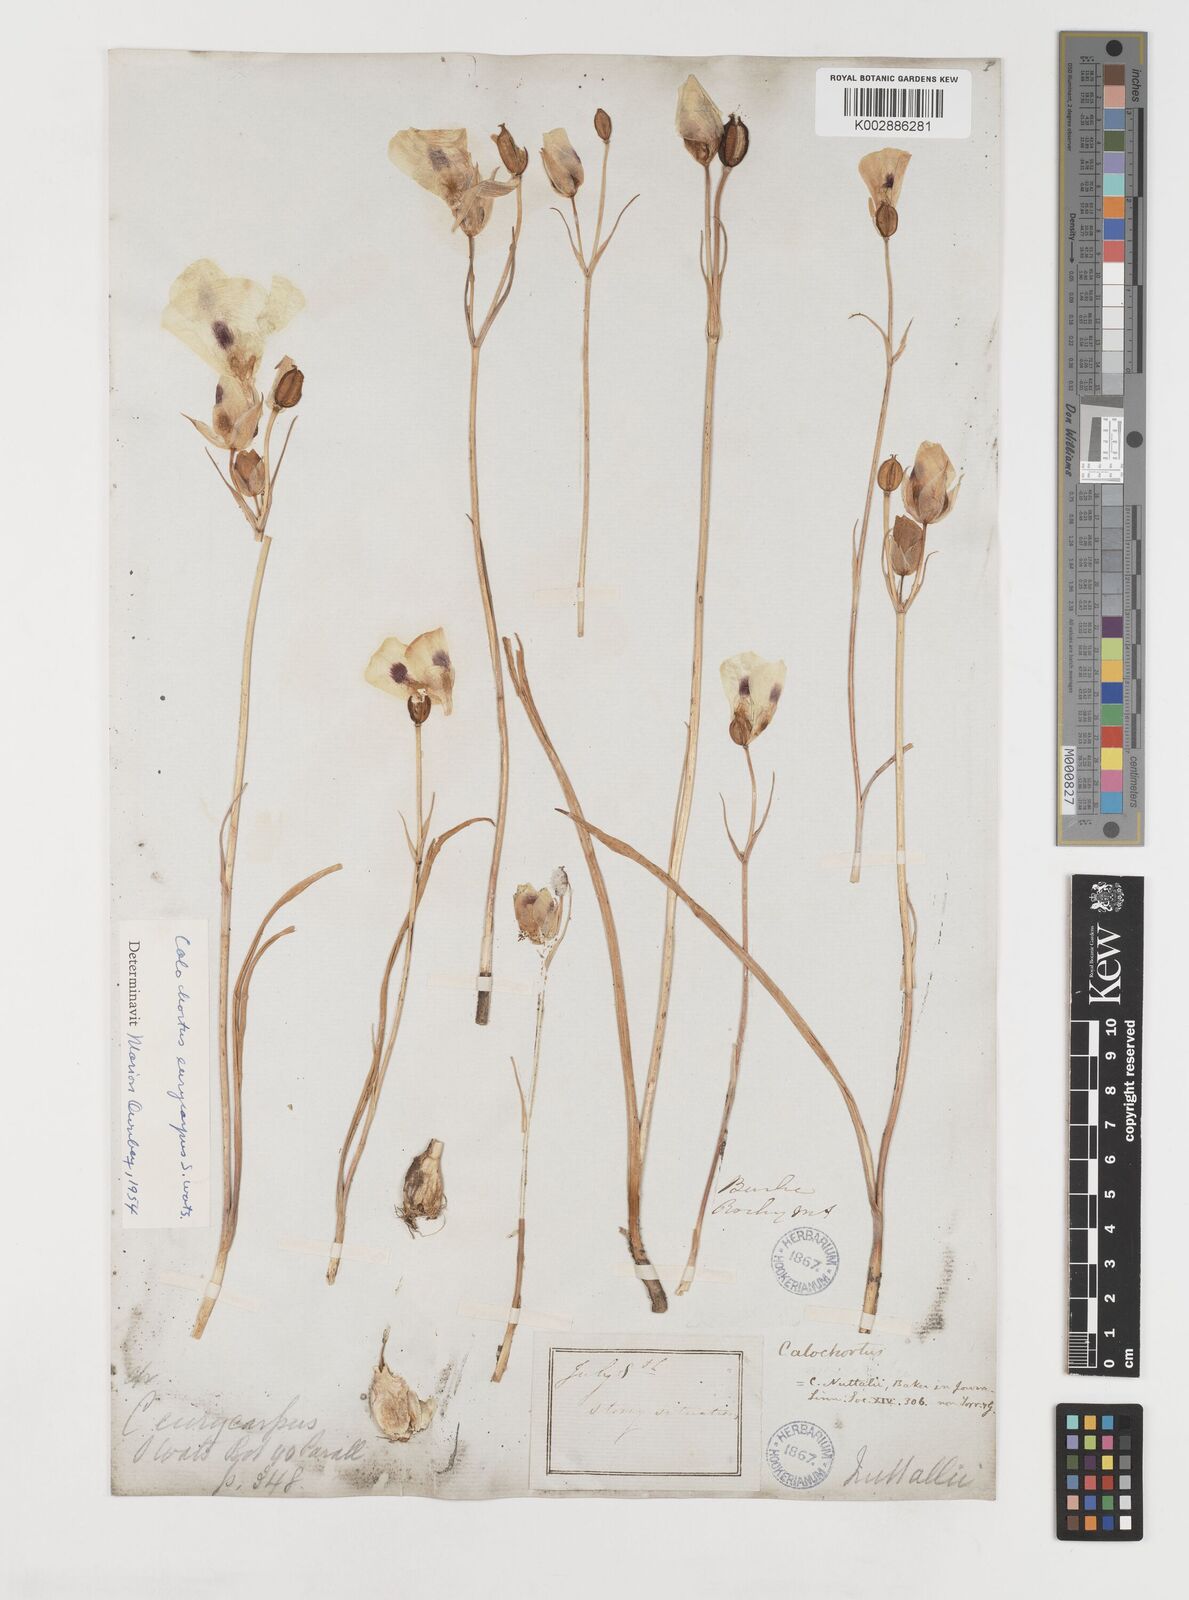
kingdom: Plantae
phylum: Tracheophyta
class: Liliopsida
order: Liliales
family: Liliaceae
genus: Calochortus
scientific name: Calochortus eurycarpus
